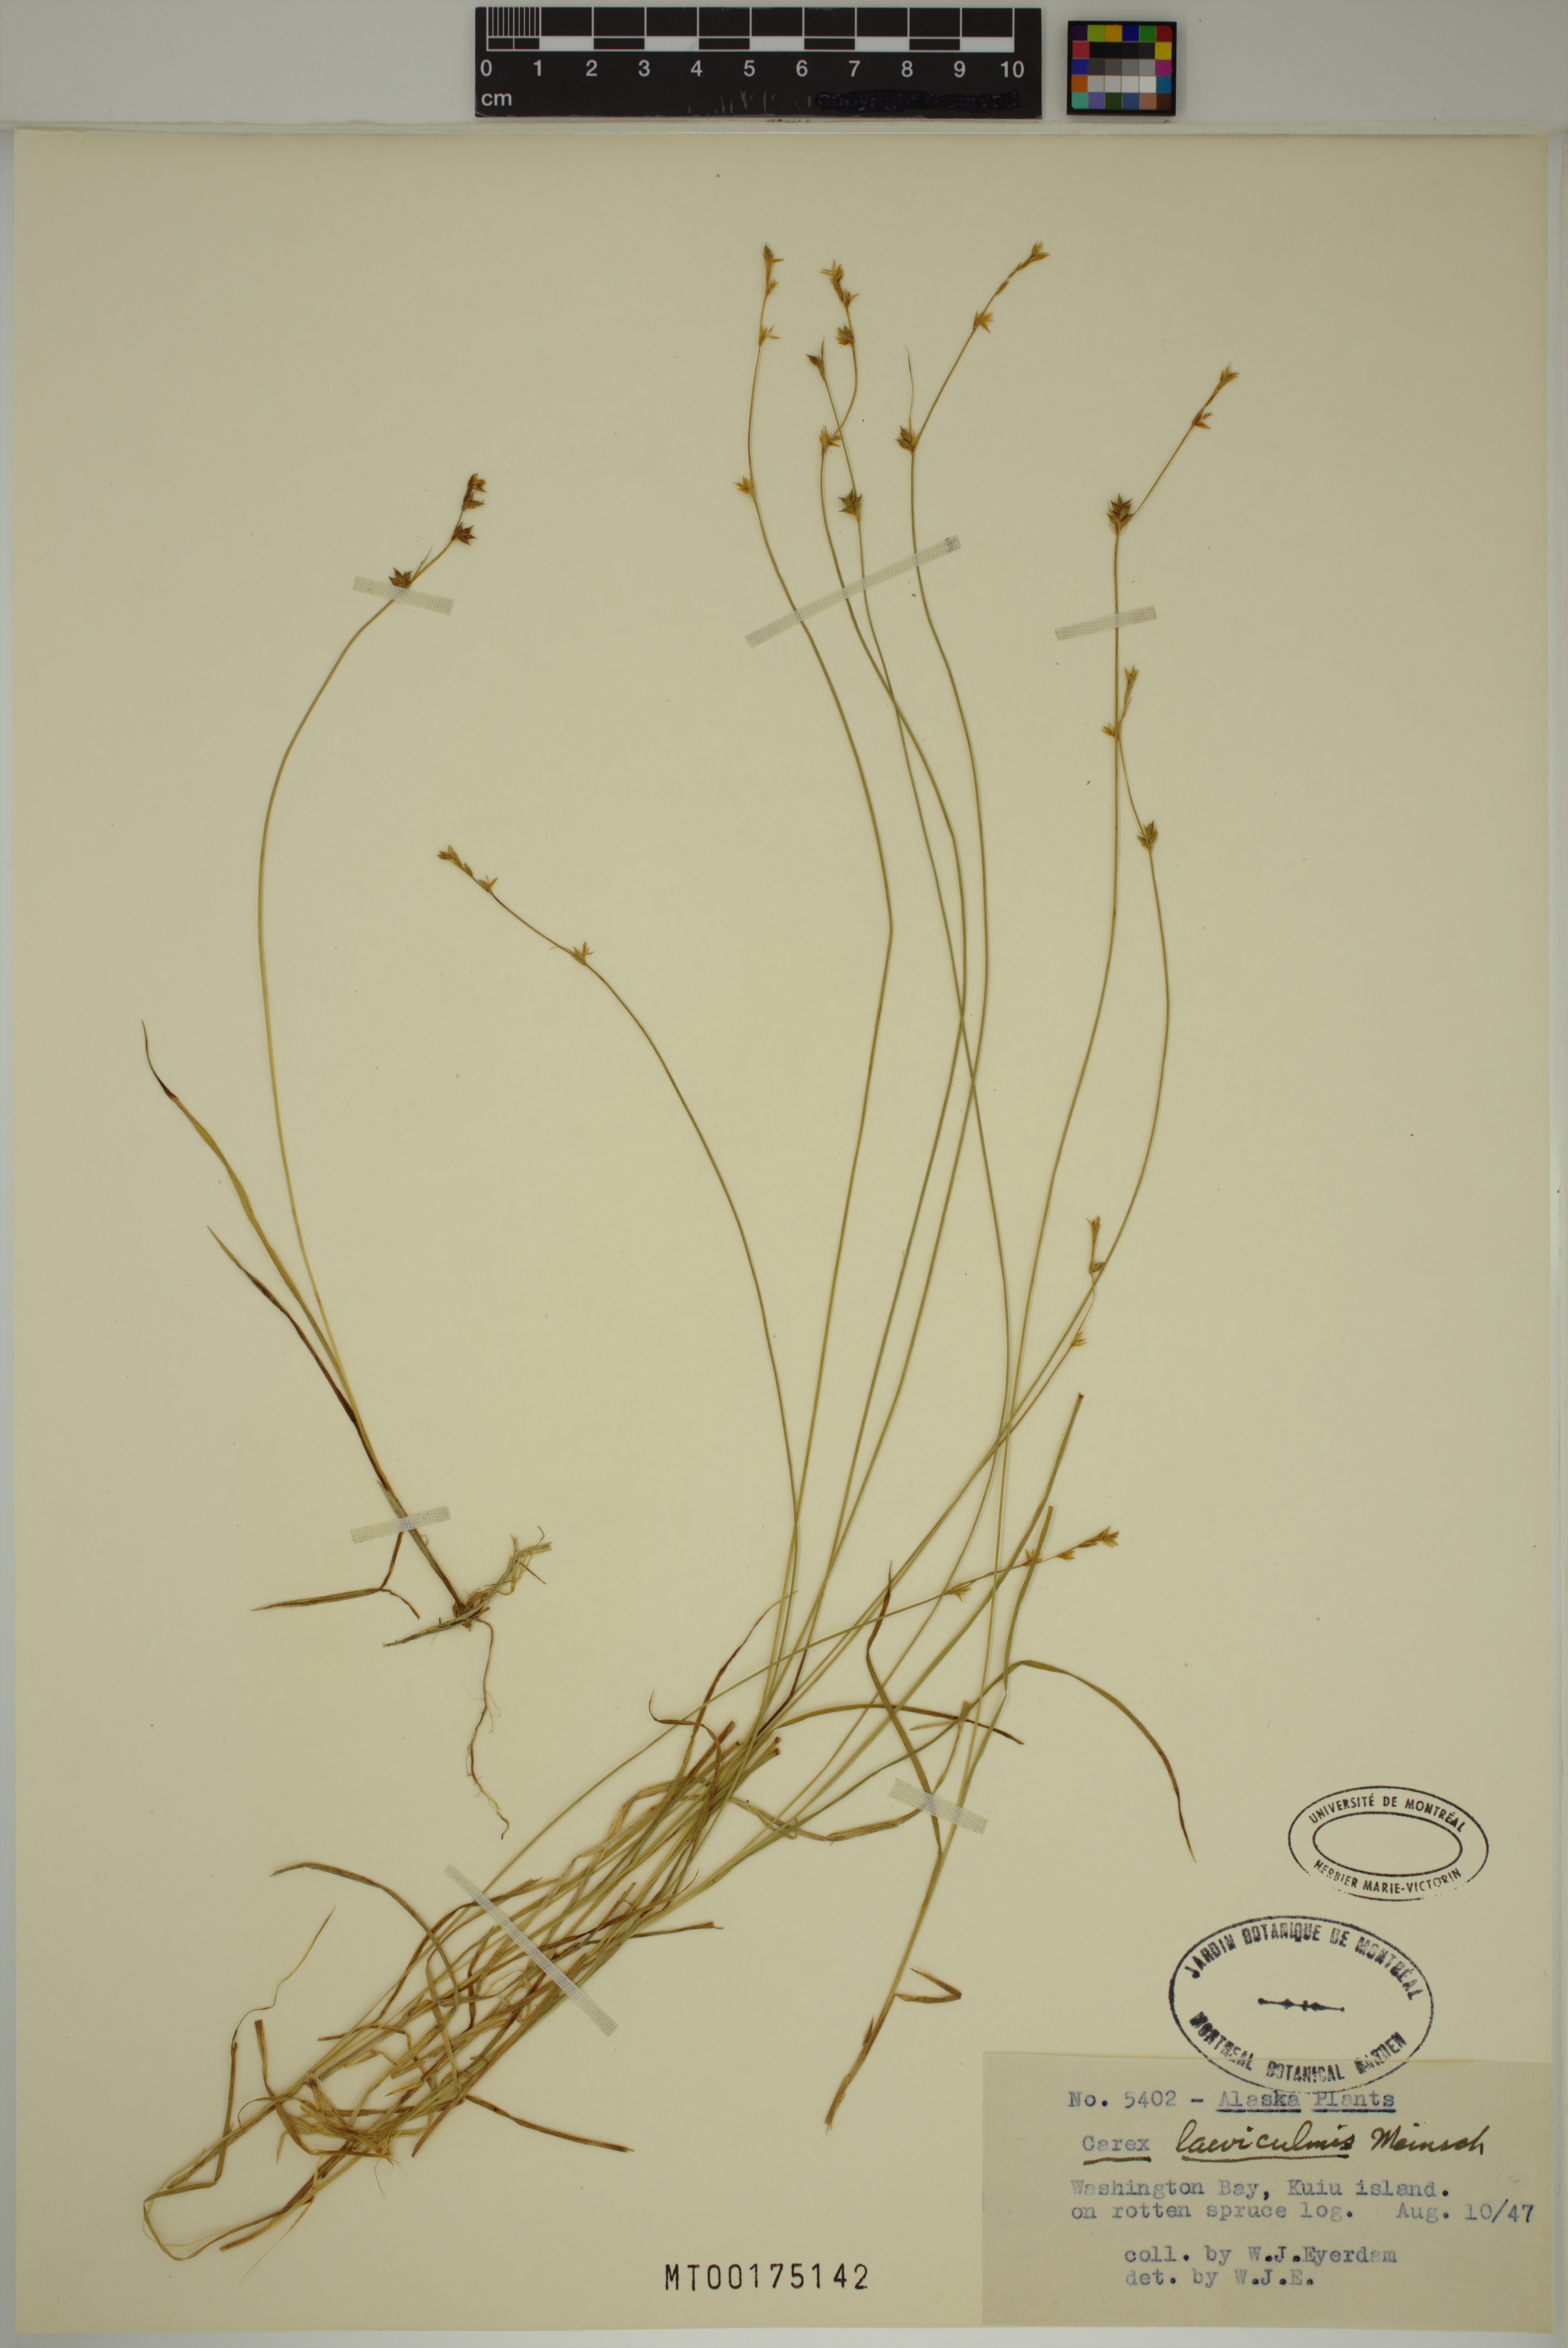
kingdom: Plantae
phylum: Tracheophyta
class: Liliopsida
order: Poales
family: Cyperaceae
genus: Carex
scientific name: Carex laeviculmis
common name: Smooth sedge
